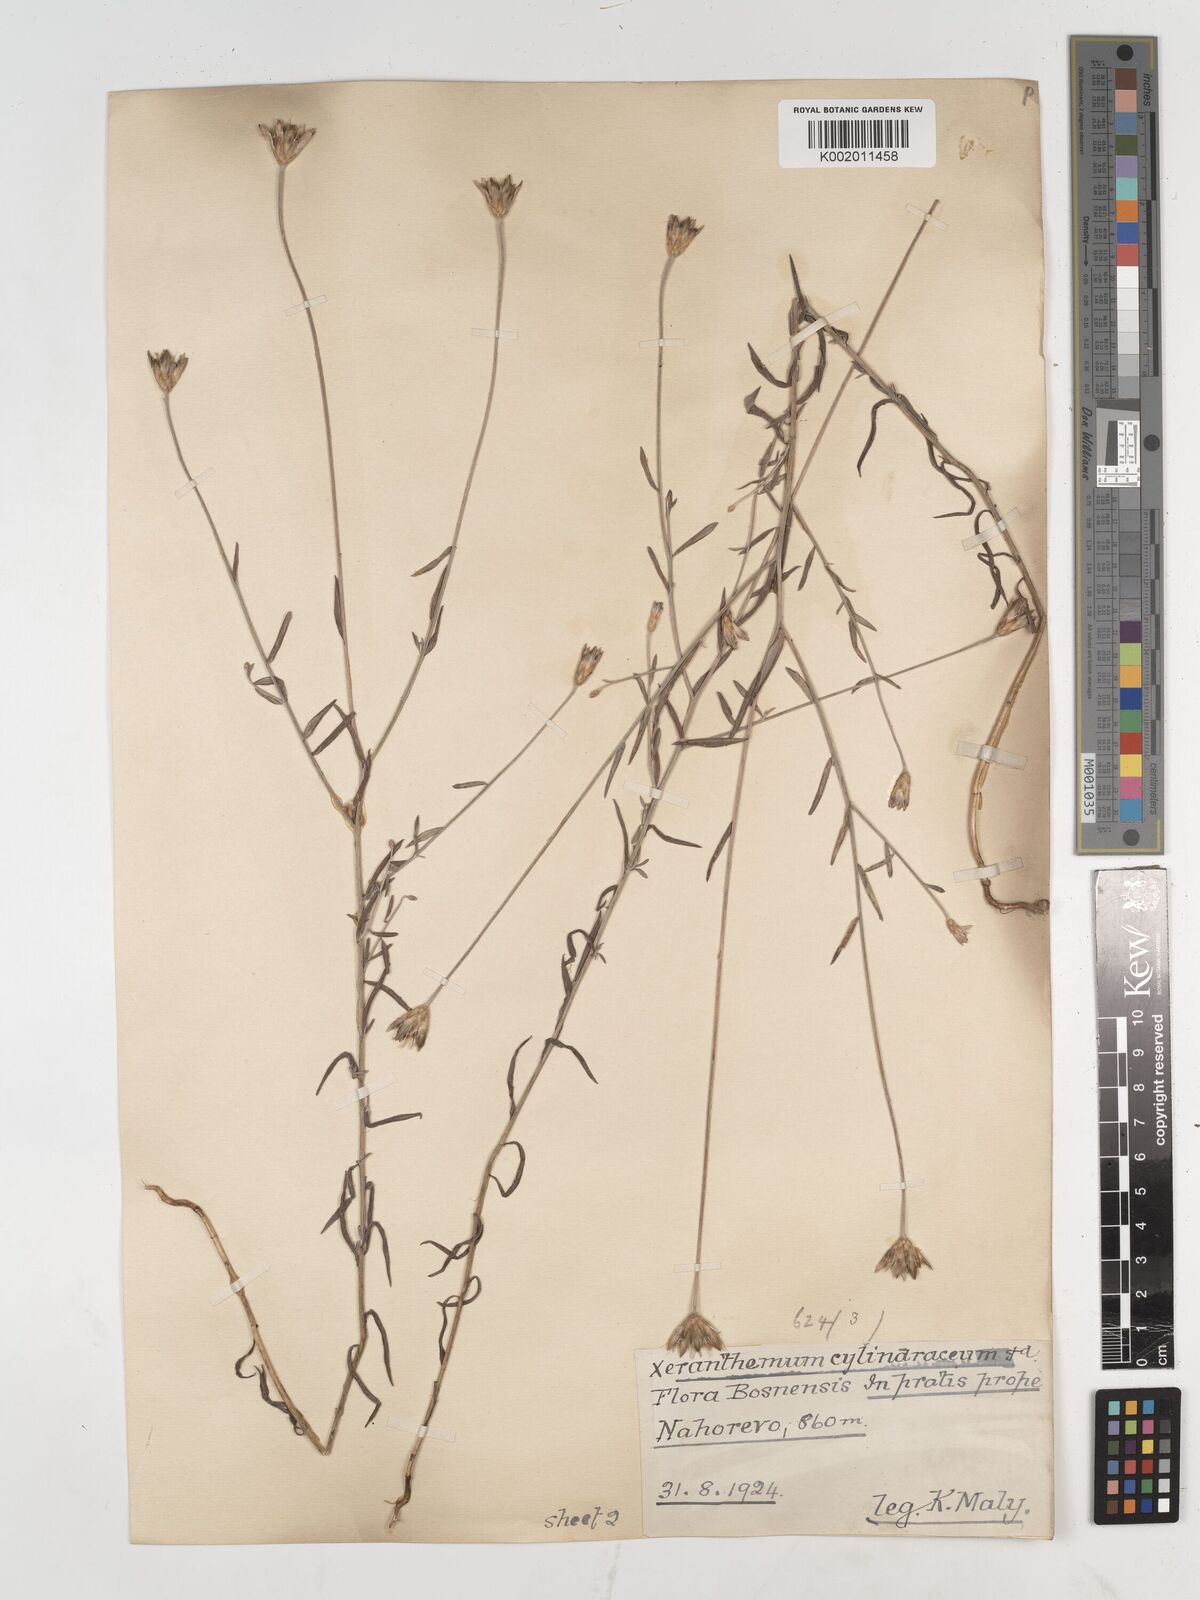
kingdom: Plantae
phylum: Tracheophyta
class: Magnoliopsida
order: Asterales
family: Asteraceae
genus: Xeranthemum
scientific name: Xeranthemum cylindraceum
